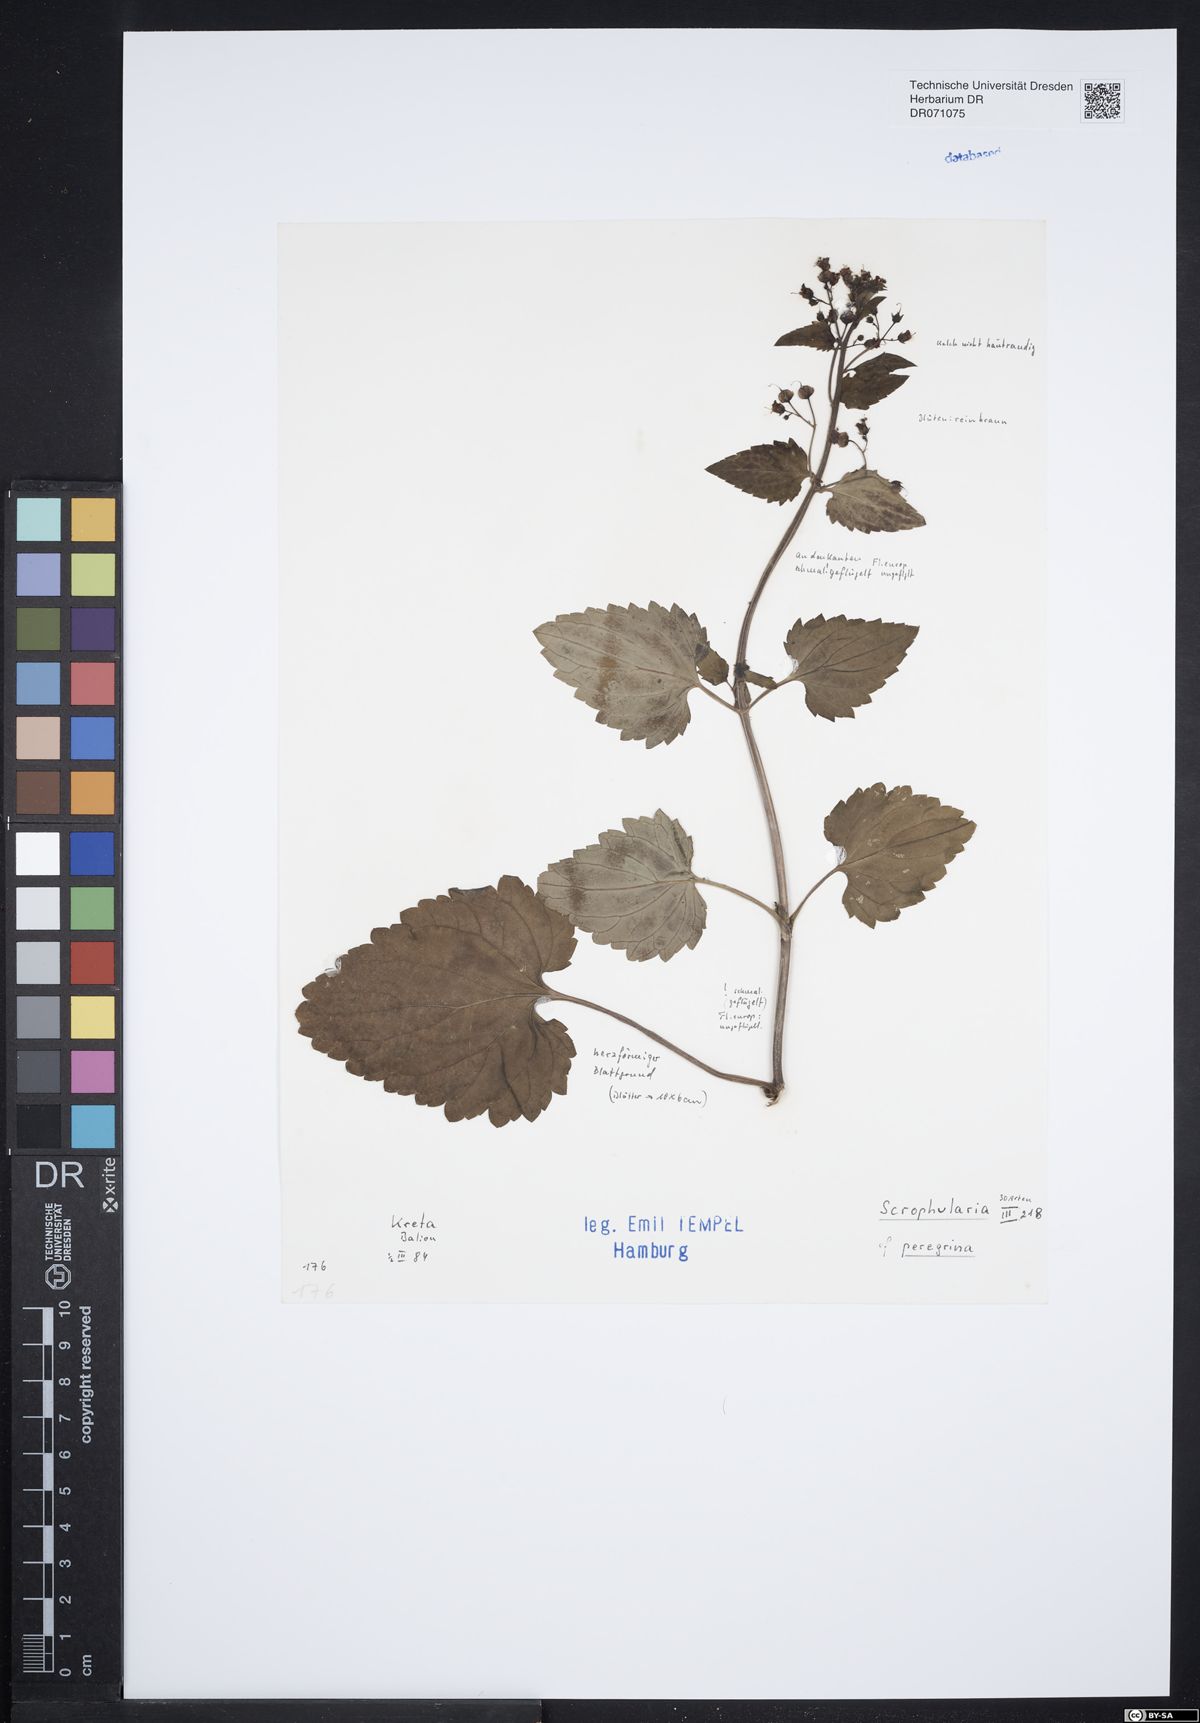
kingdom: Plantae
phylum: Tracheophyta
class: Magnoliopsida
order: Lamiales
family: Scrophulariaceae
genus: Scrophularia
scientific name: Scrophularia peregrina
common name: Mediterranean figwort
